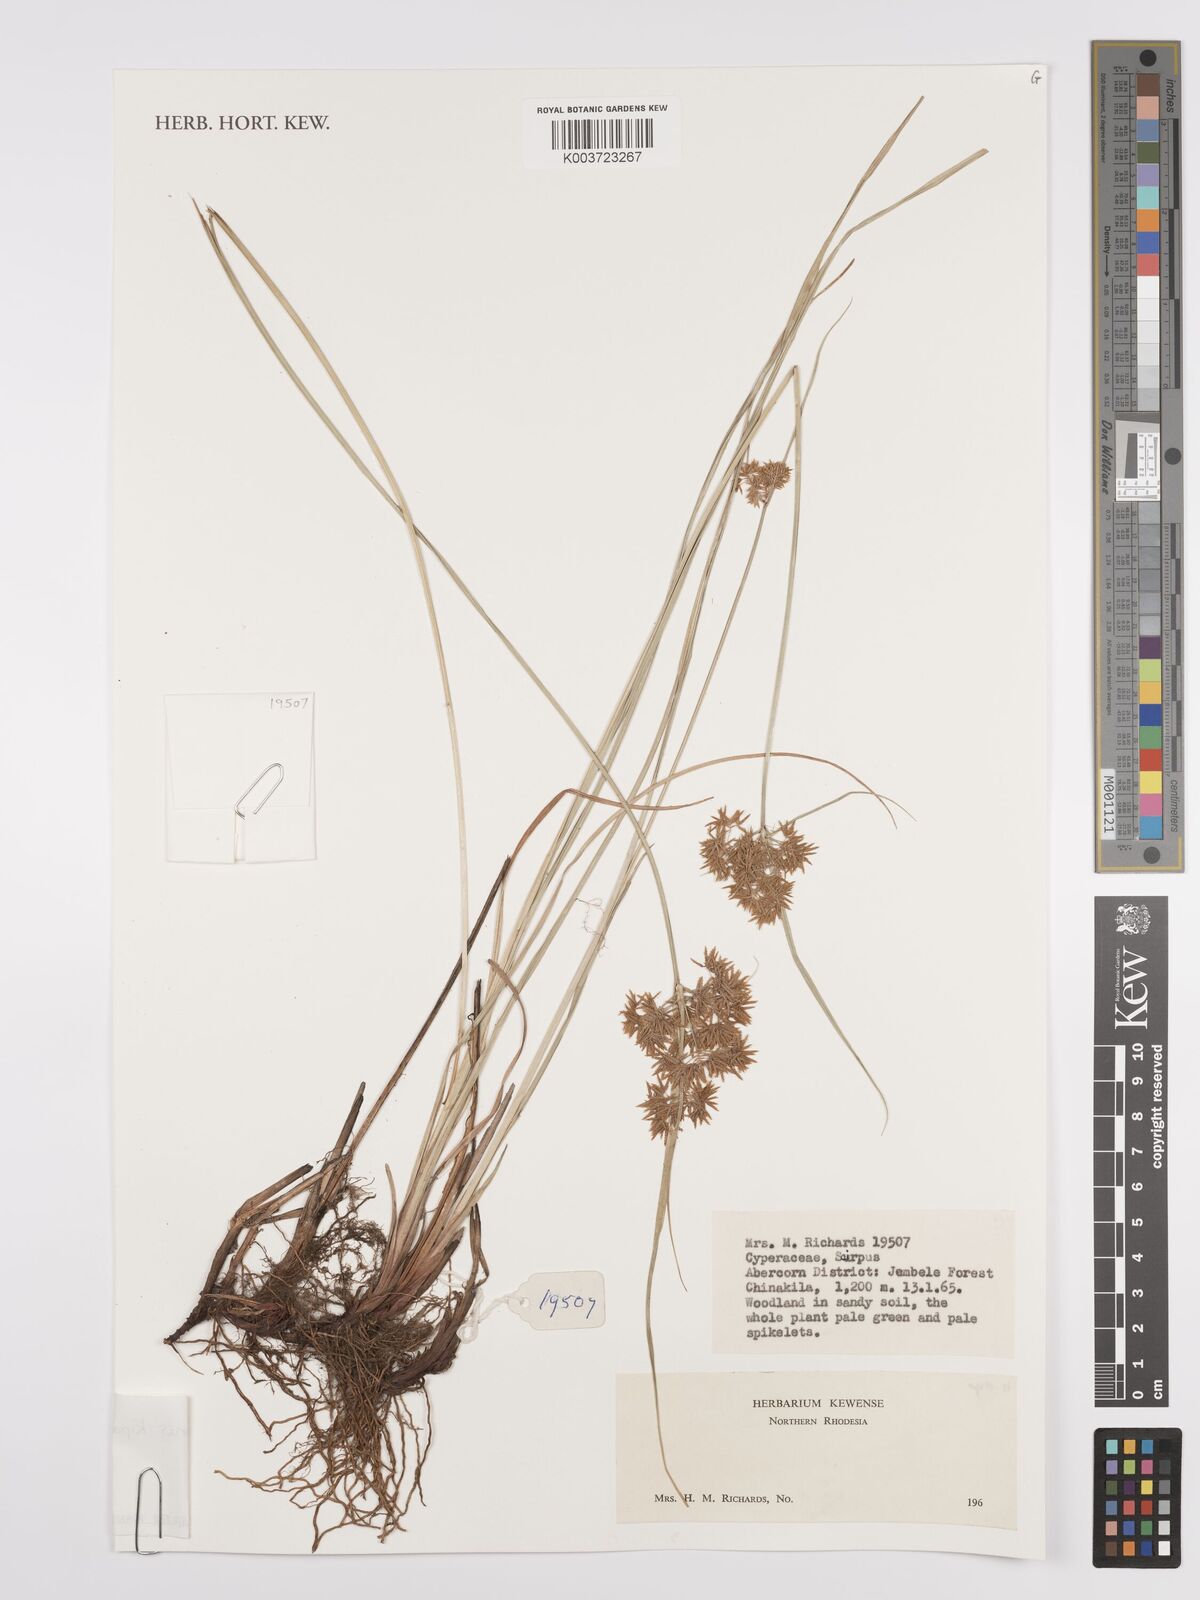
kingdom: Plantae
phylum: Tracheophyta
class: Liliopsida
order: Poales
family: Cyperaceae
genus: Cyperus
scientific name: Cyperus kipasensis
